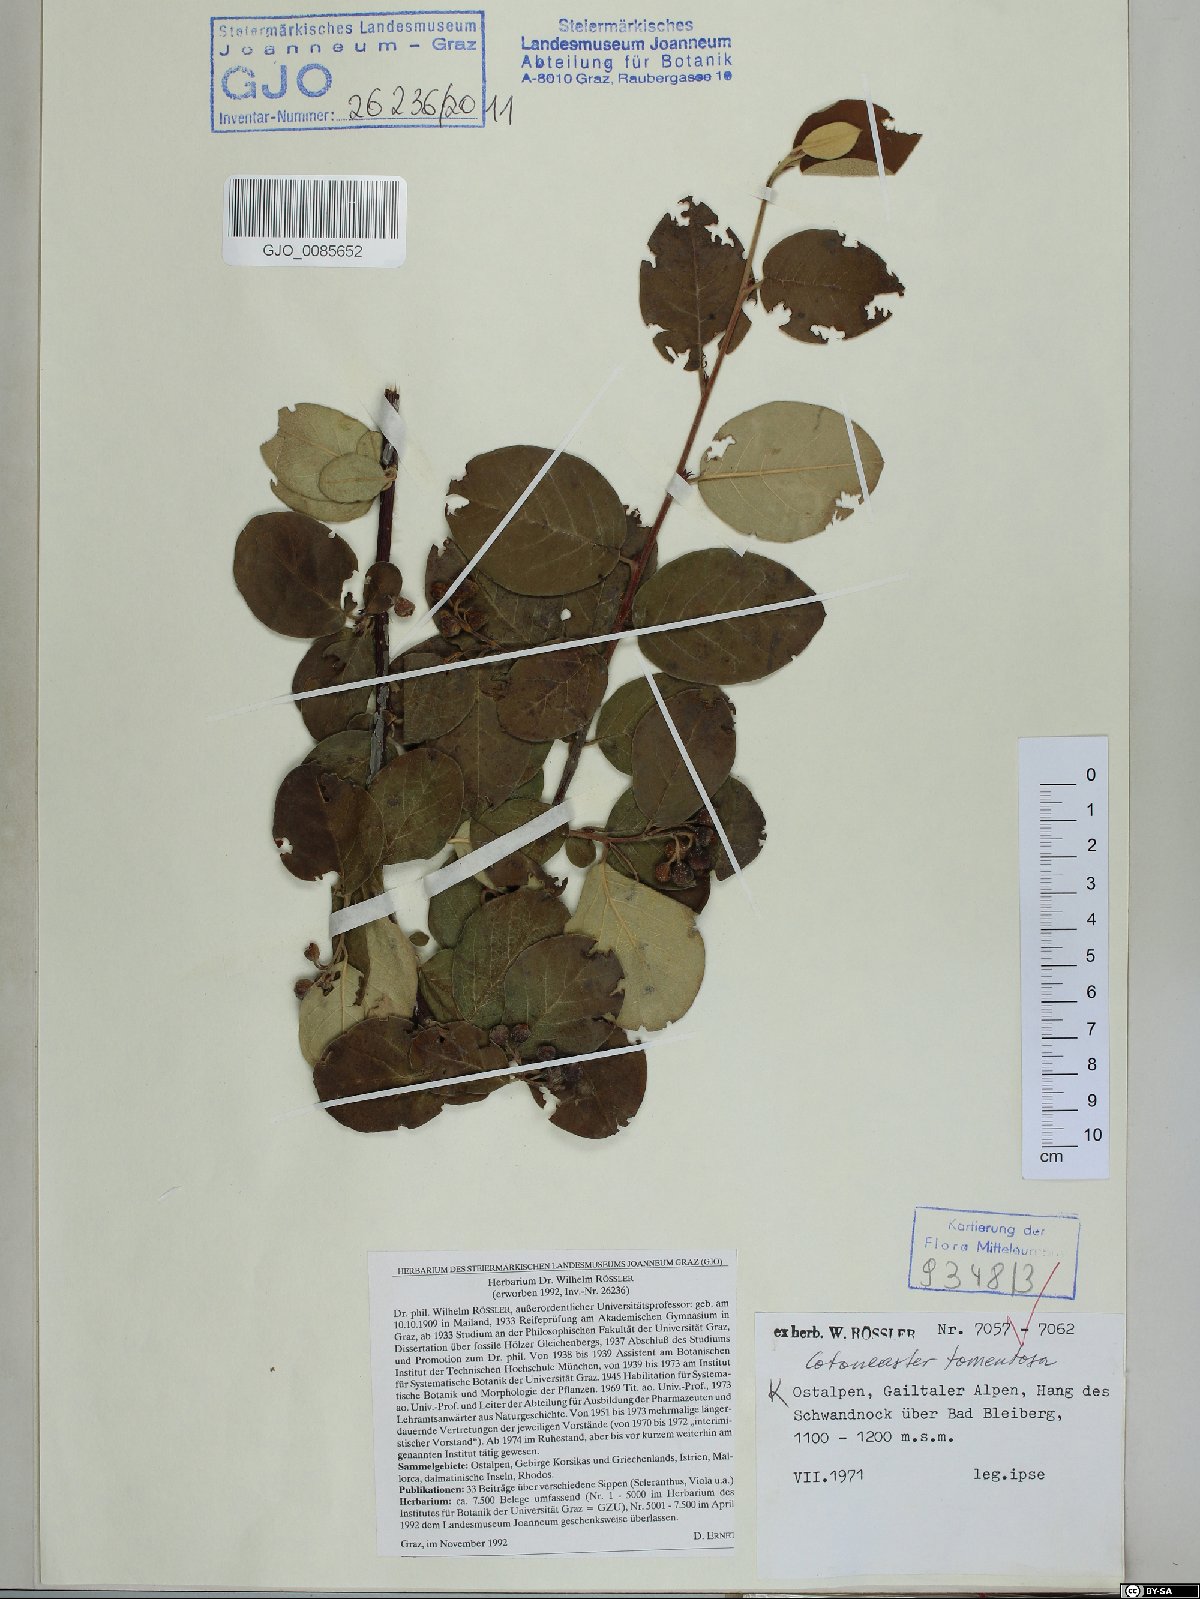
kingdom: Plantae
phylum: Tracheophyta
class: Magnoliopsida
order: Rosales
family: Rosaceae
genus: Cotoneaster
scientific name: Cotoneaster tomentosus
